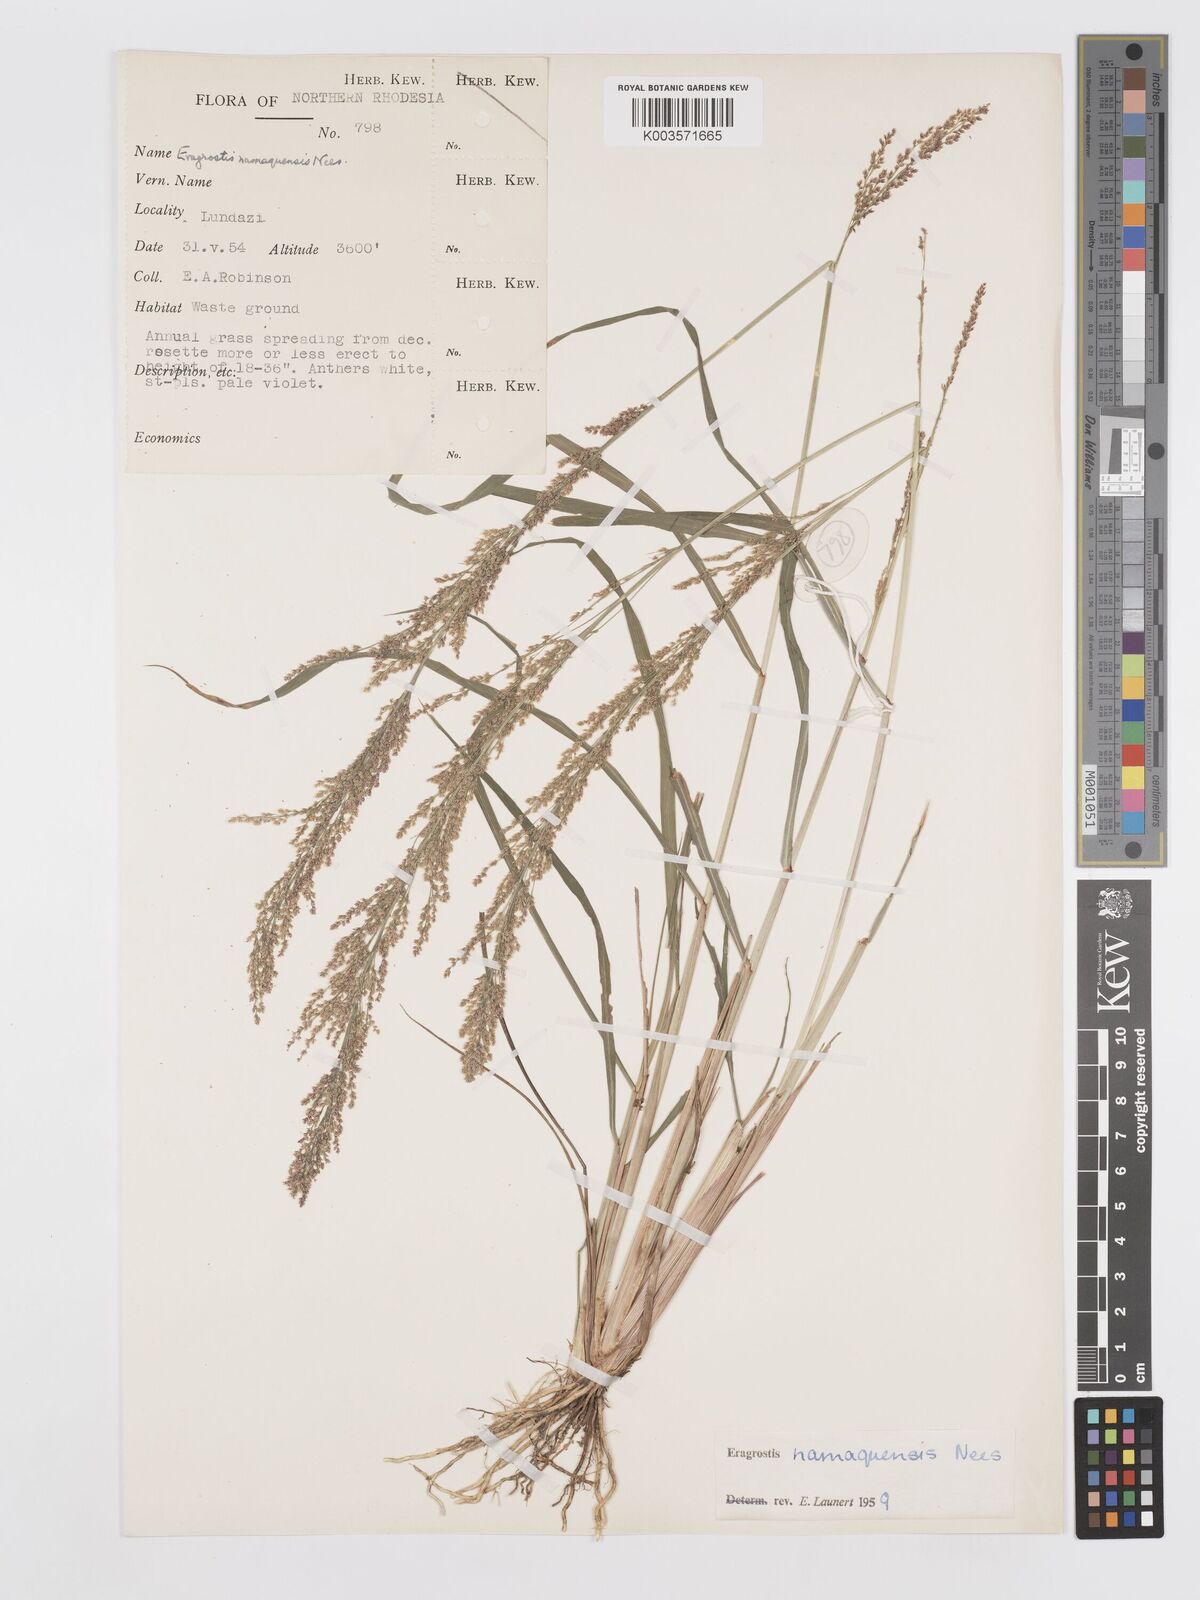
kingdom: Plantae
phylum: Tracheophyta
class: Liliopsida
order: Poales
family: Poaceae
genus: Eragrostis
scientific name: Eragrostis japonica
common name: Pond lovegrass
